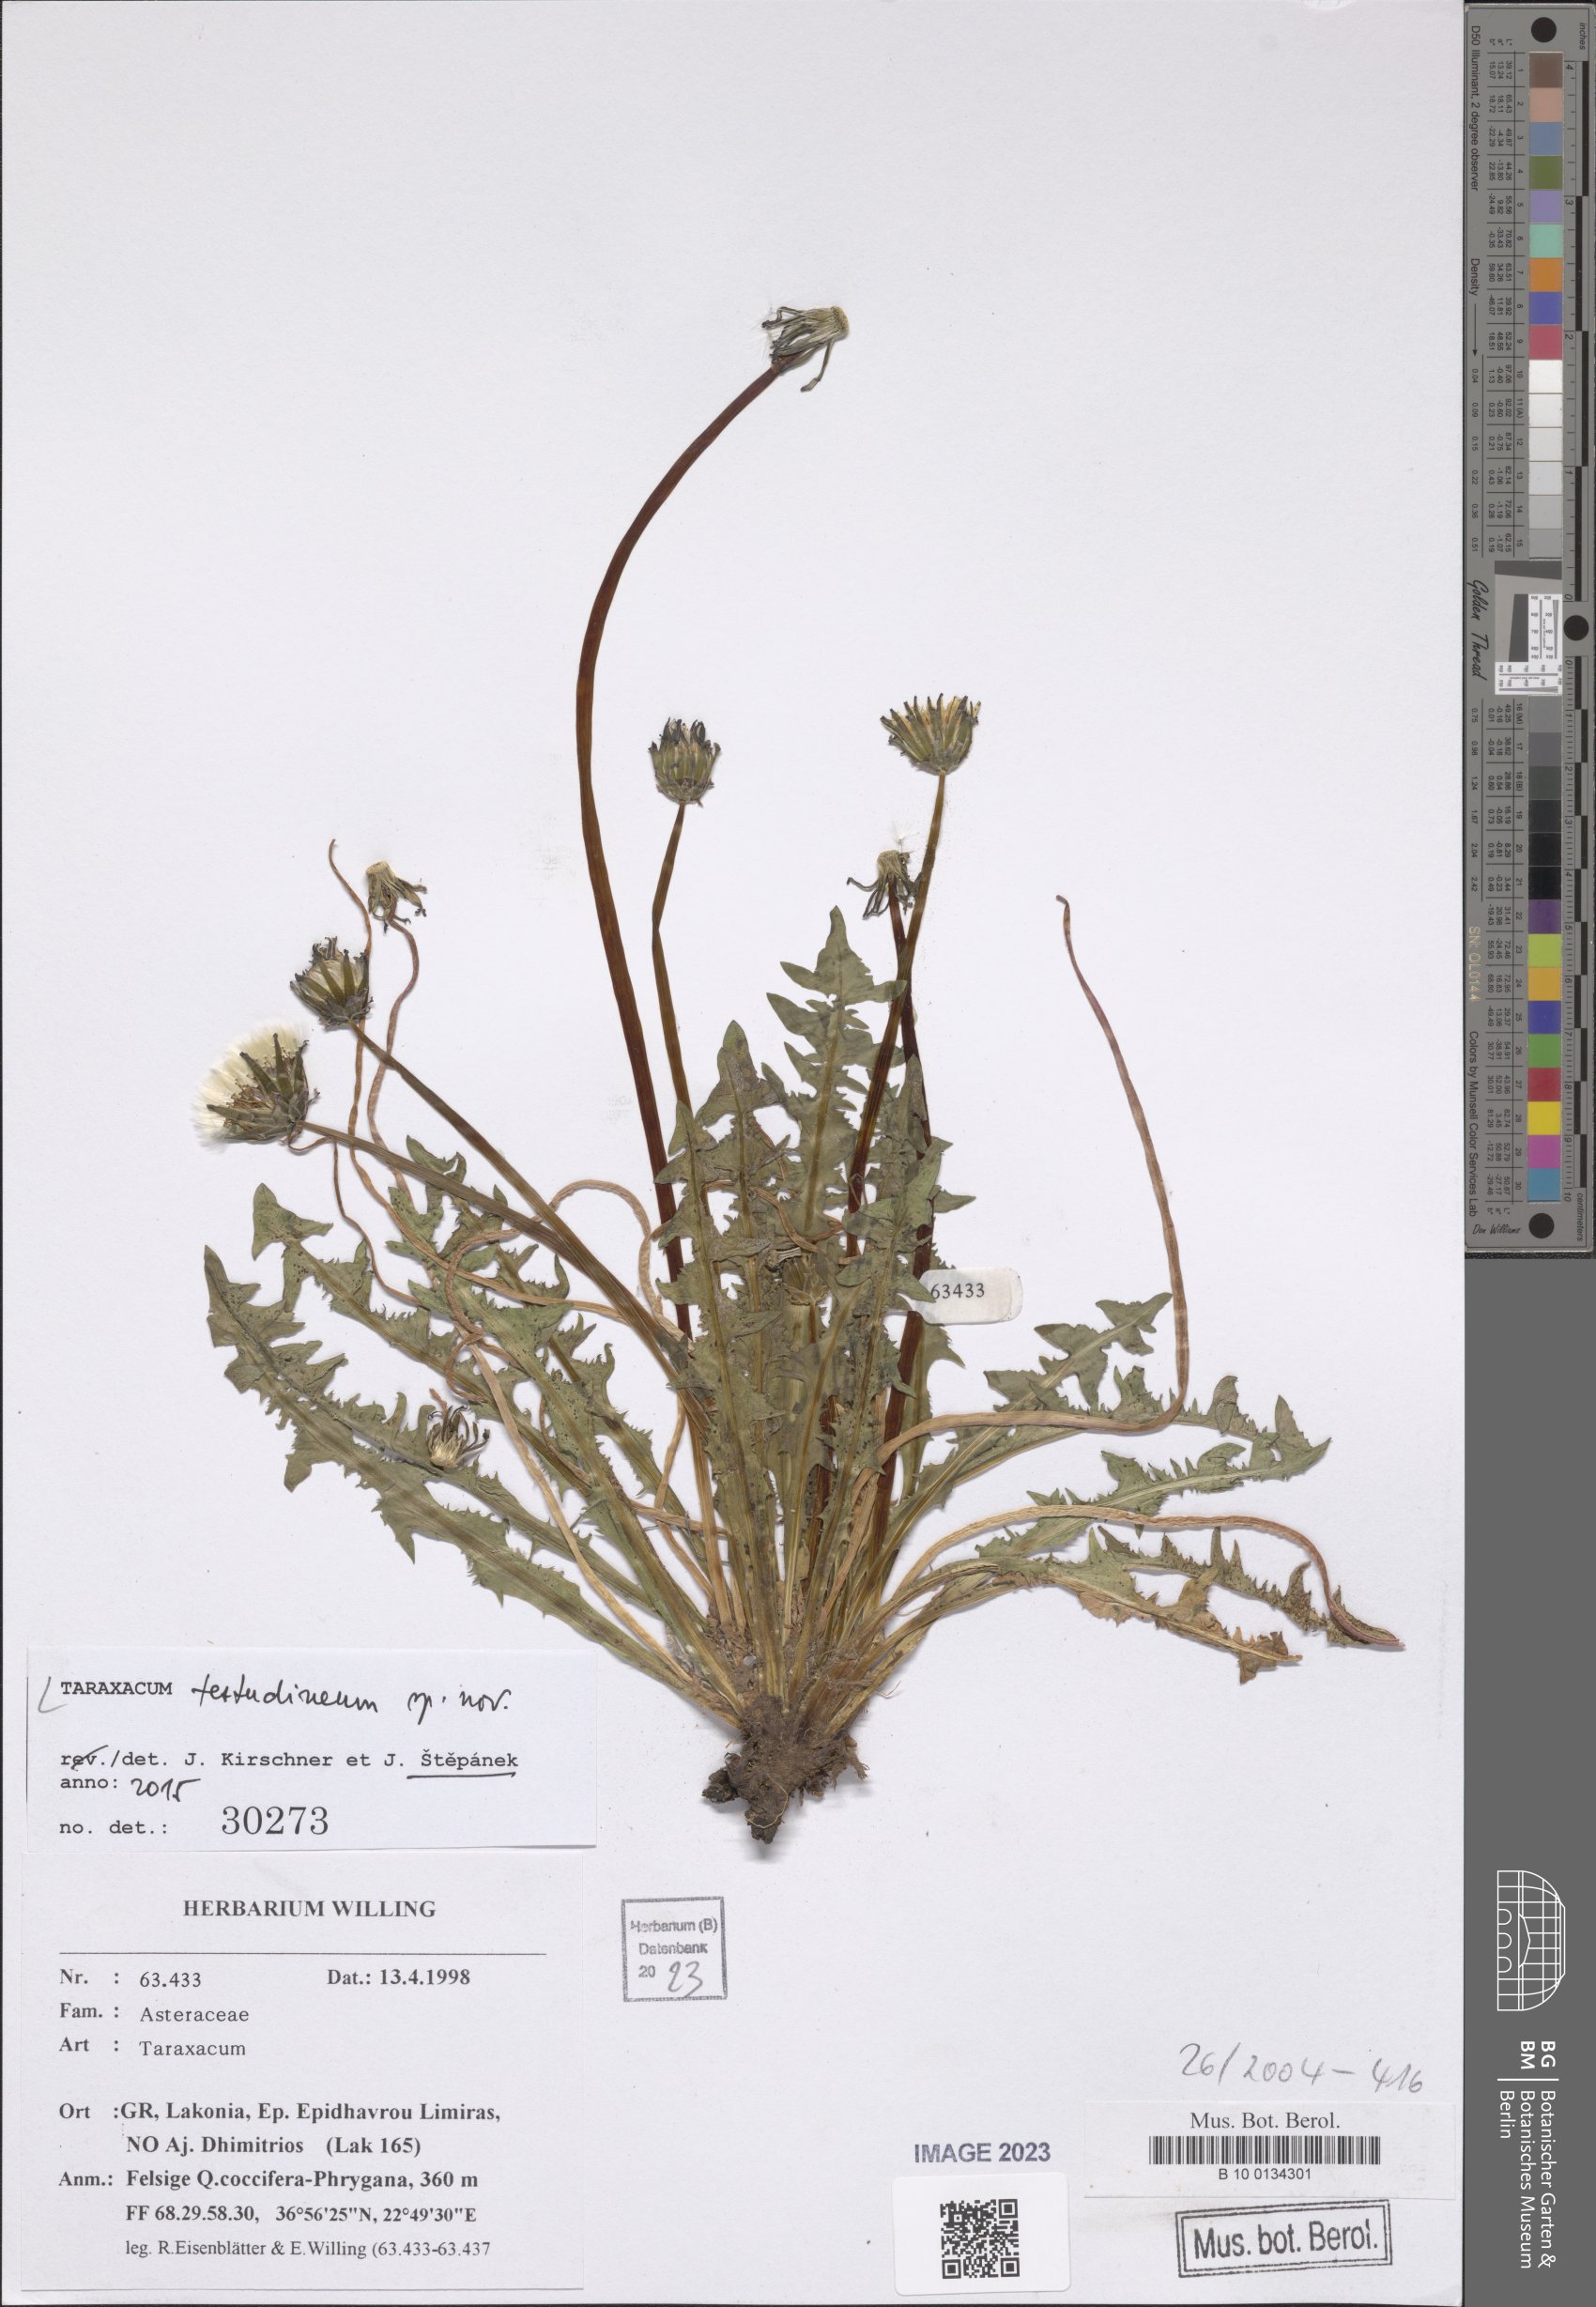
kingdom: Plantae
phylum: Tracheophyta
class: Magnoliopsida
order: Asterales
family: Asteraceae
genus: Taraxacum
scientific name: Taraxacum
